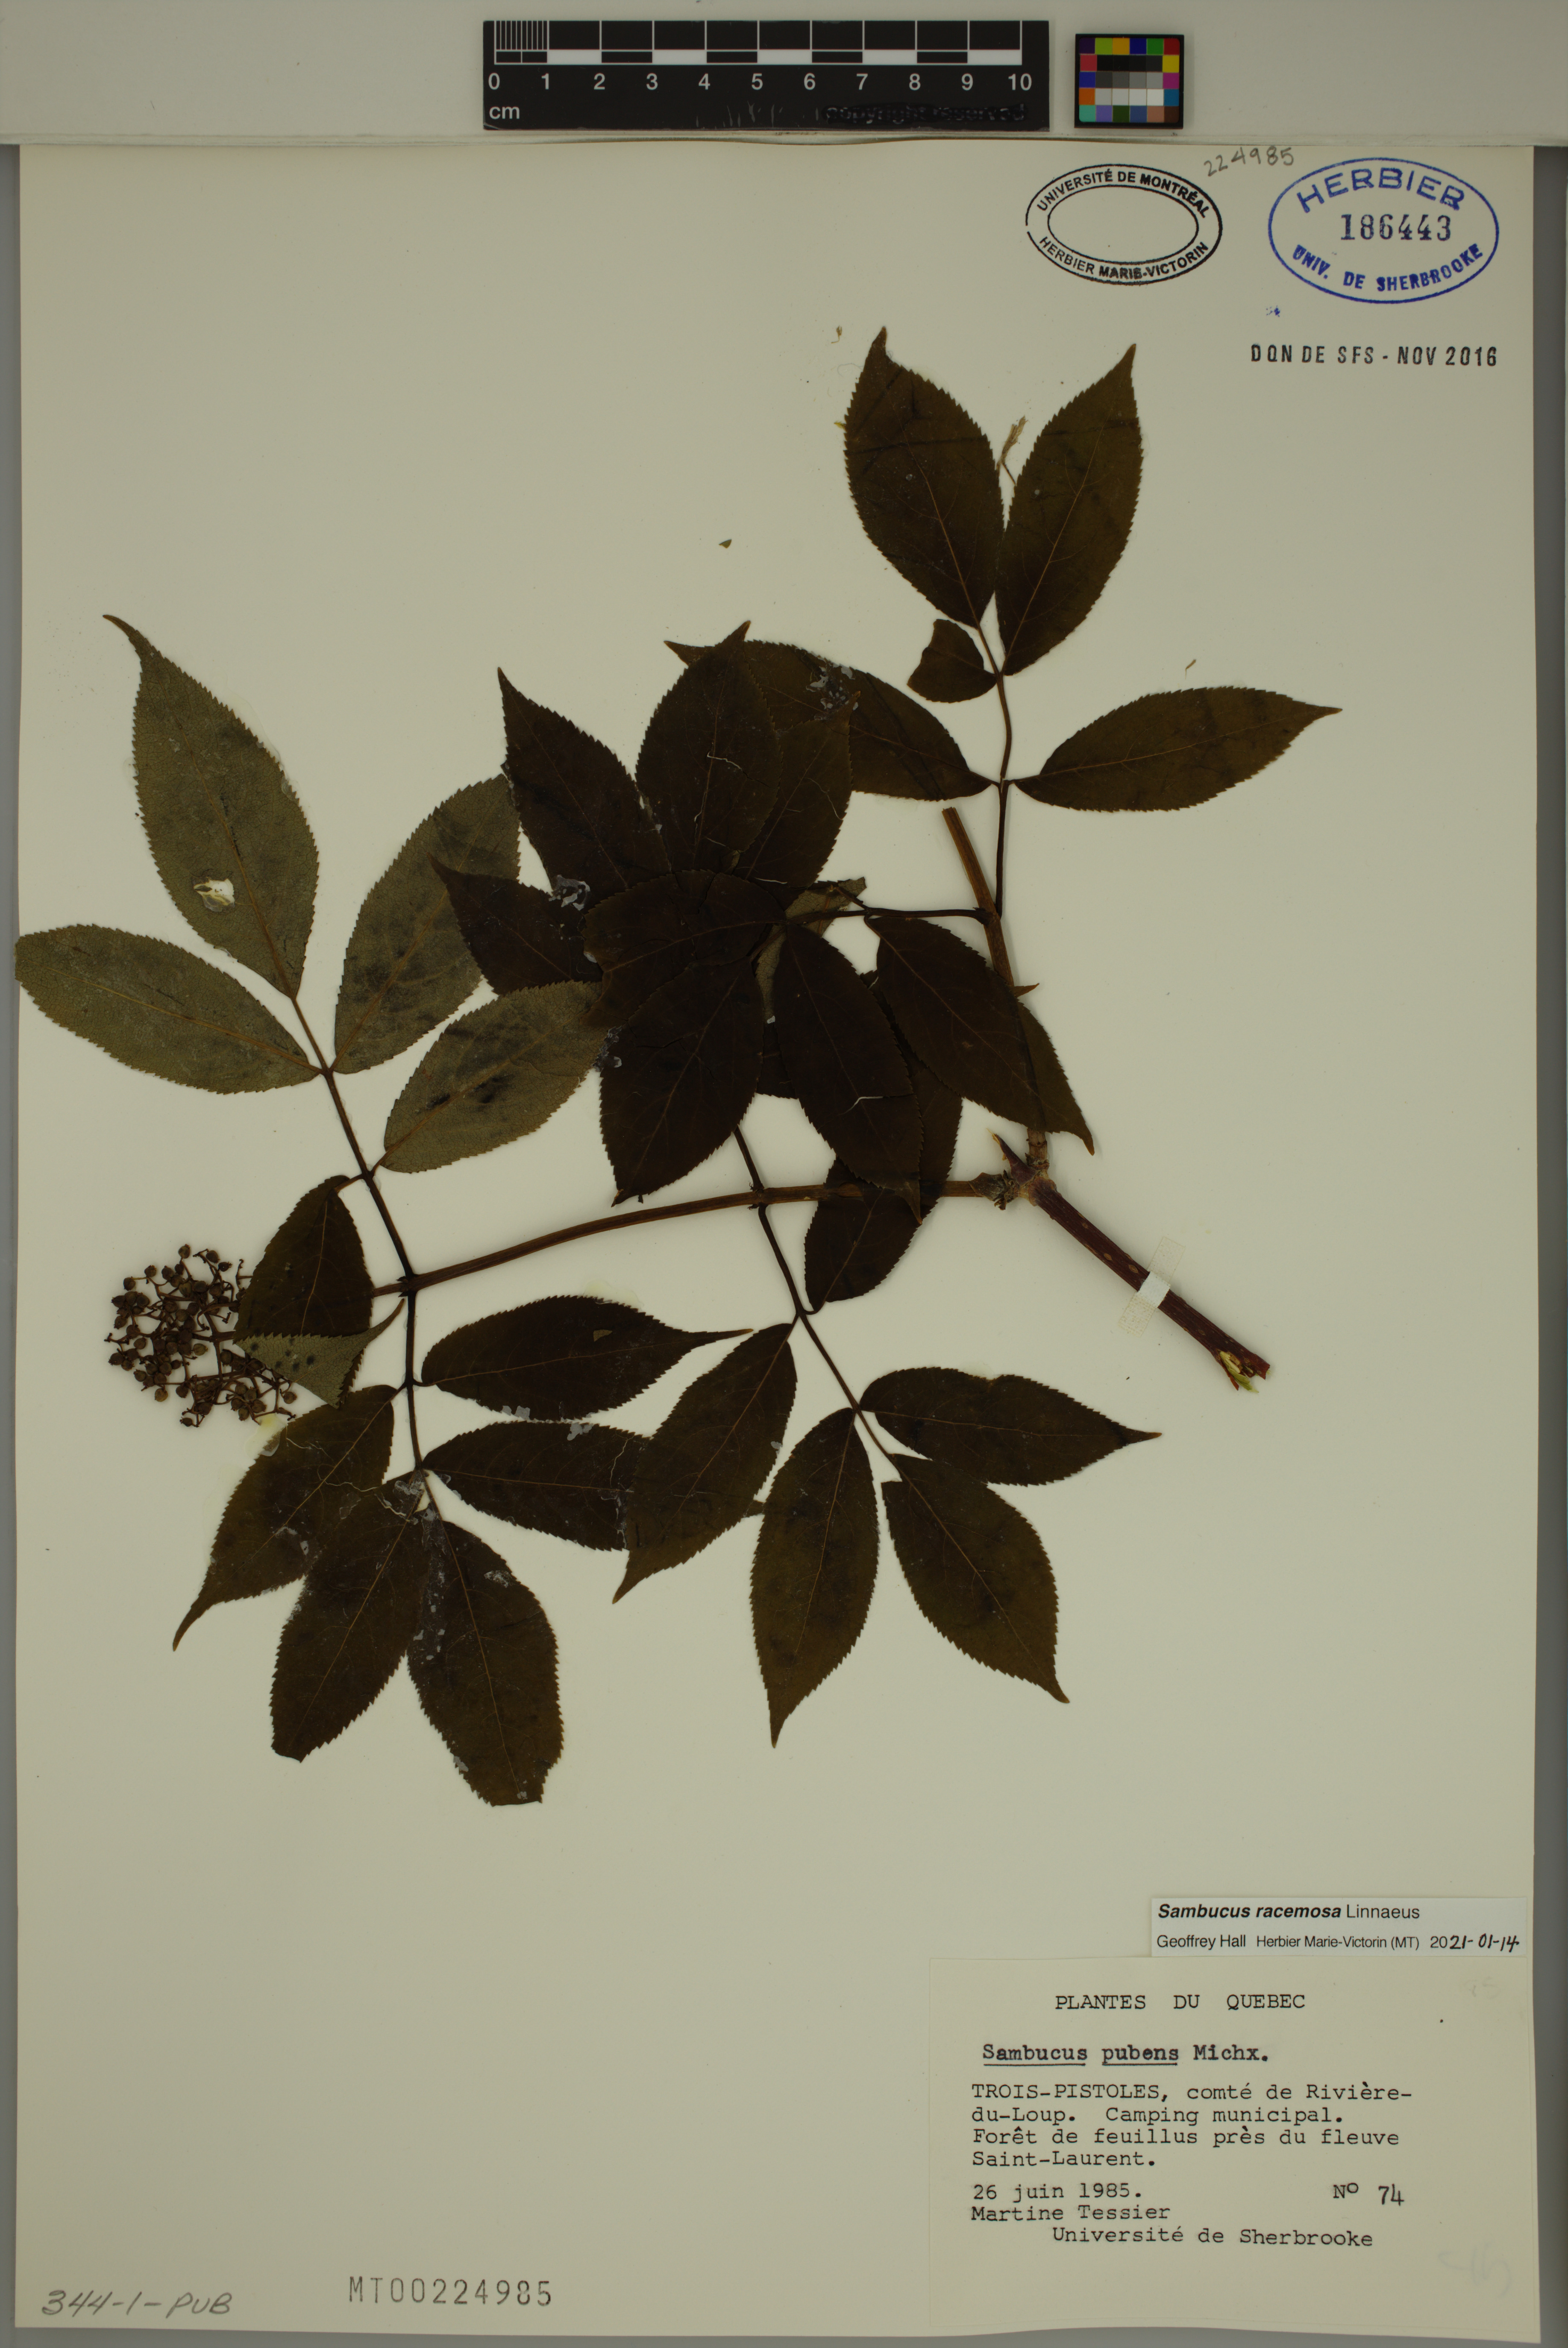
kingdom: Plantae
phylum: Tracheophyta
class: Magnoliopsida
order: Dipsacales
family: Viburnaceae
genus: Sambucus
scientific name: Sambucus racemosa
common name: Red-berried elder
